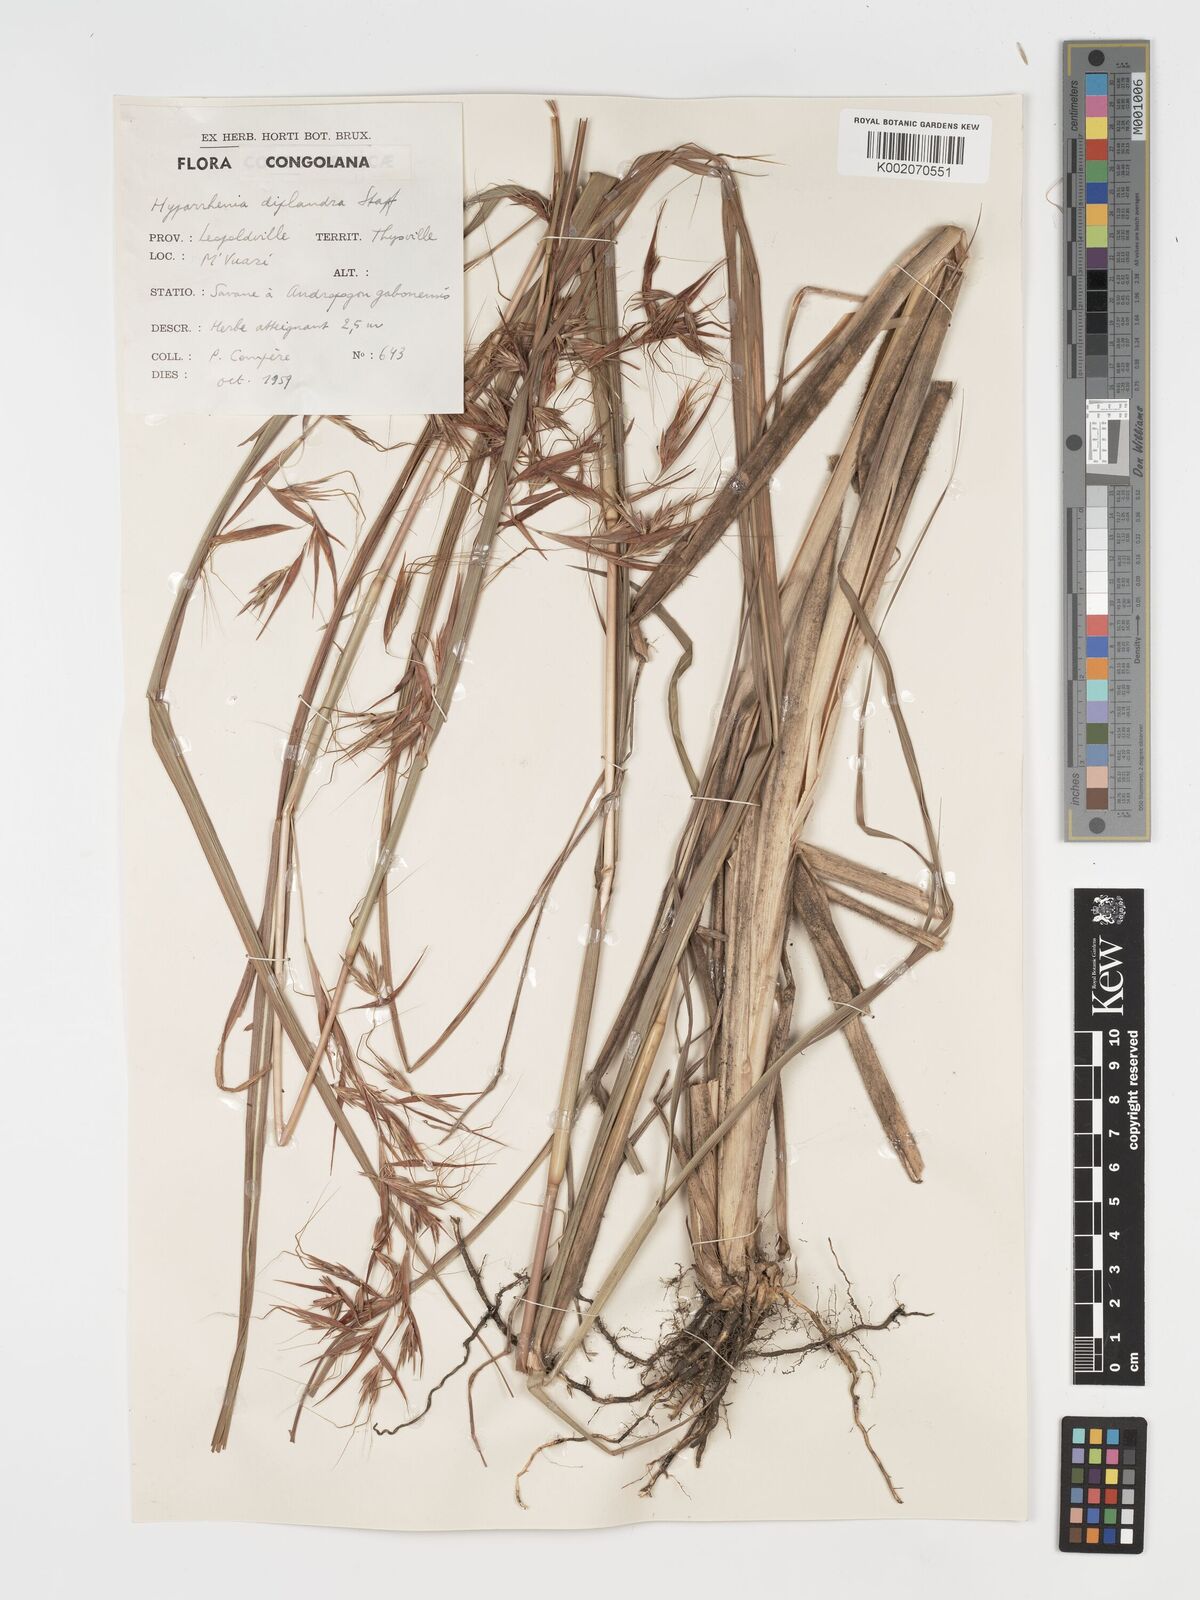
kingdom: Plantae
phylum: Tracheophyta
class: Liliopsida
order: Poales
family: Poaceae
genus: Hyparrhenia
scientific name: Hyparrhenia diplandra
